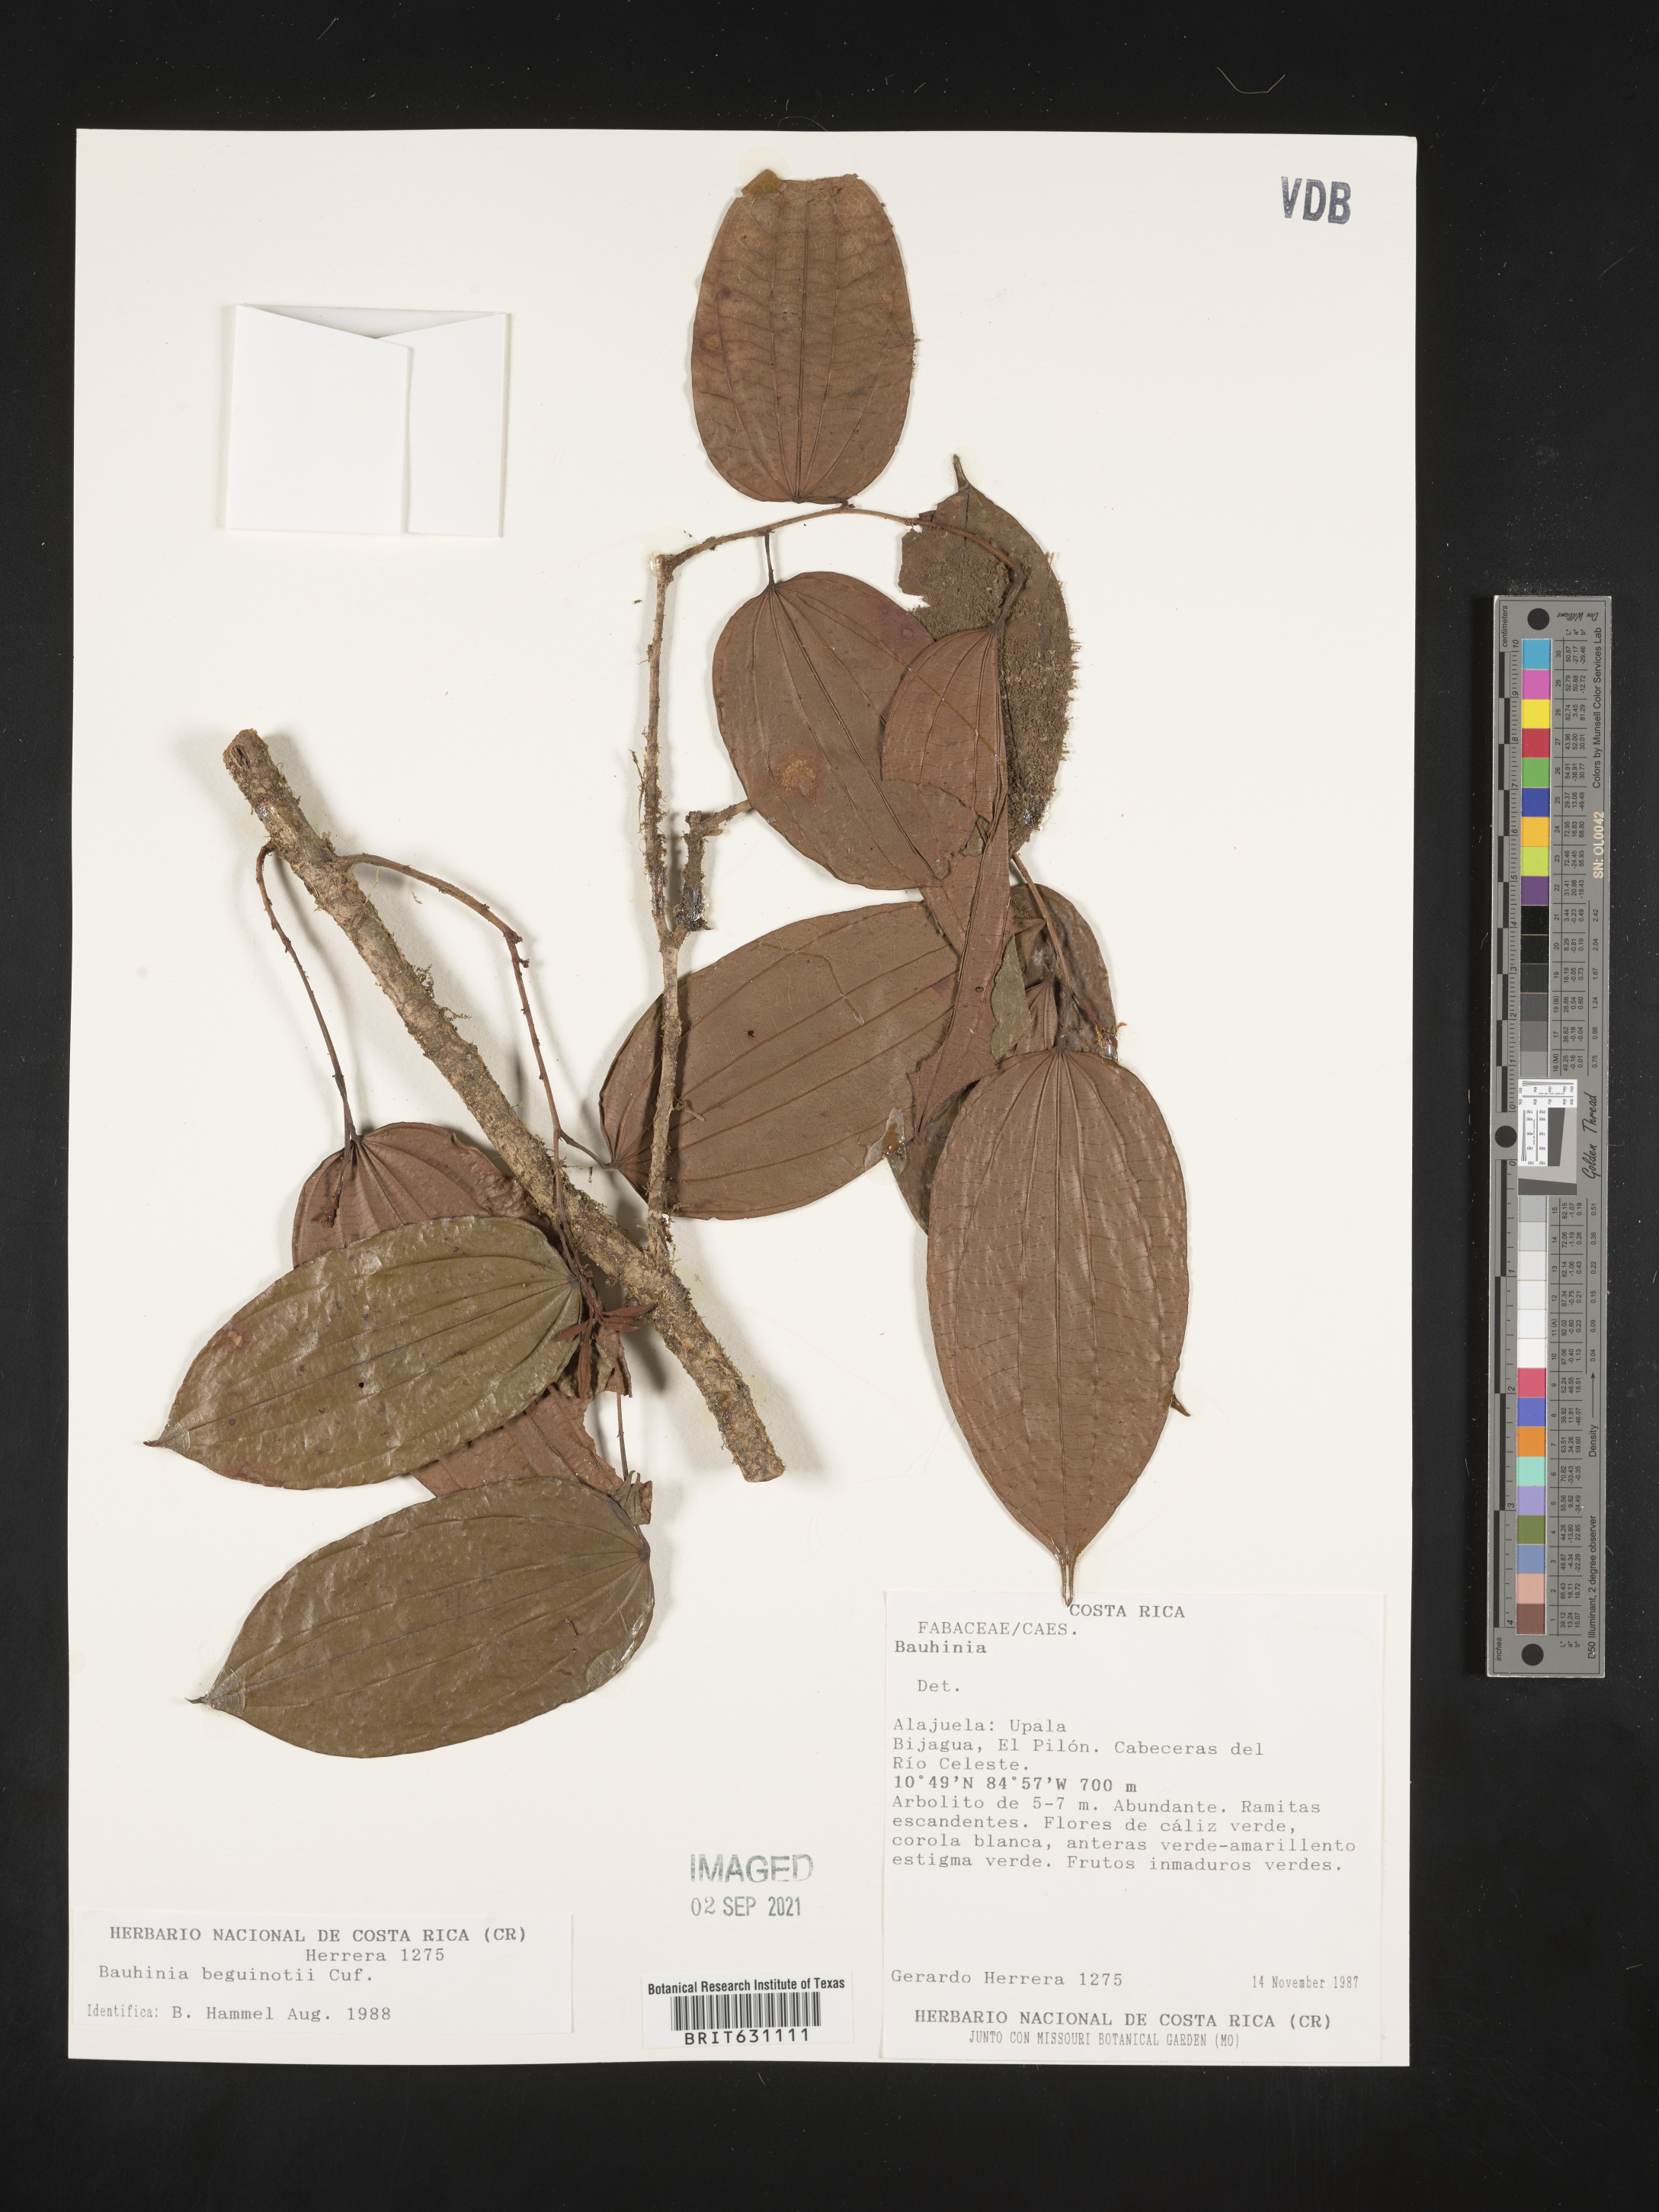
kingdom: Plantae
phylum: Tracheophyta
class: Magnoliopsida
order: Fabales
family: Fabaceae
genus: Bauhinia
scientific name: Bauhinia
